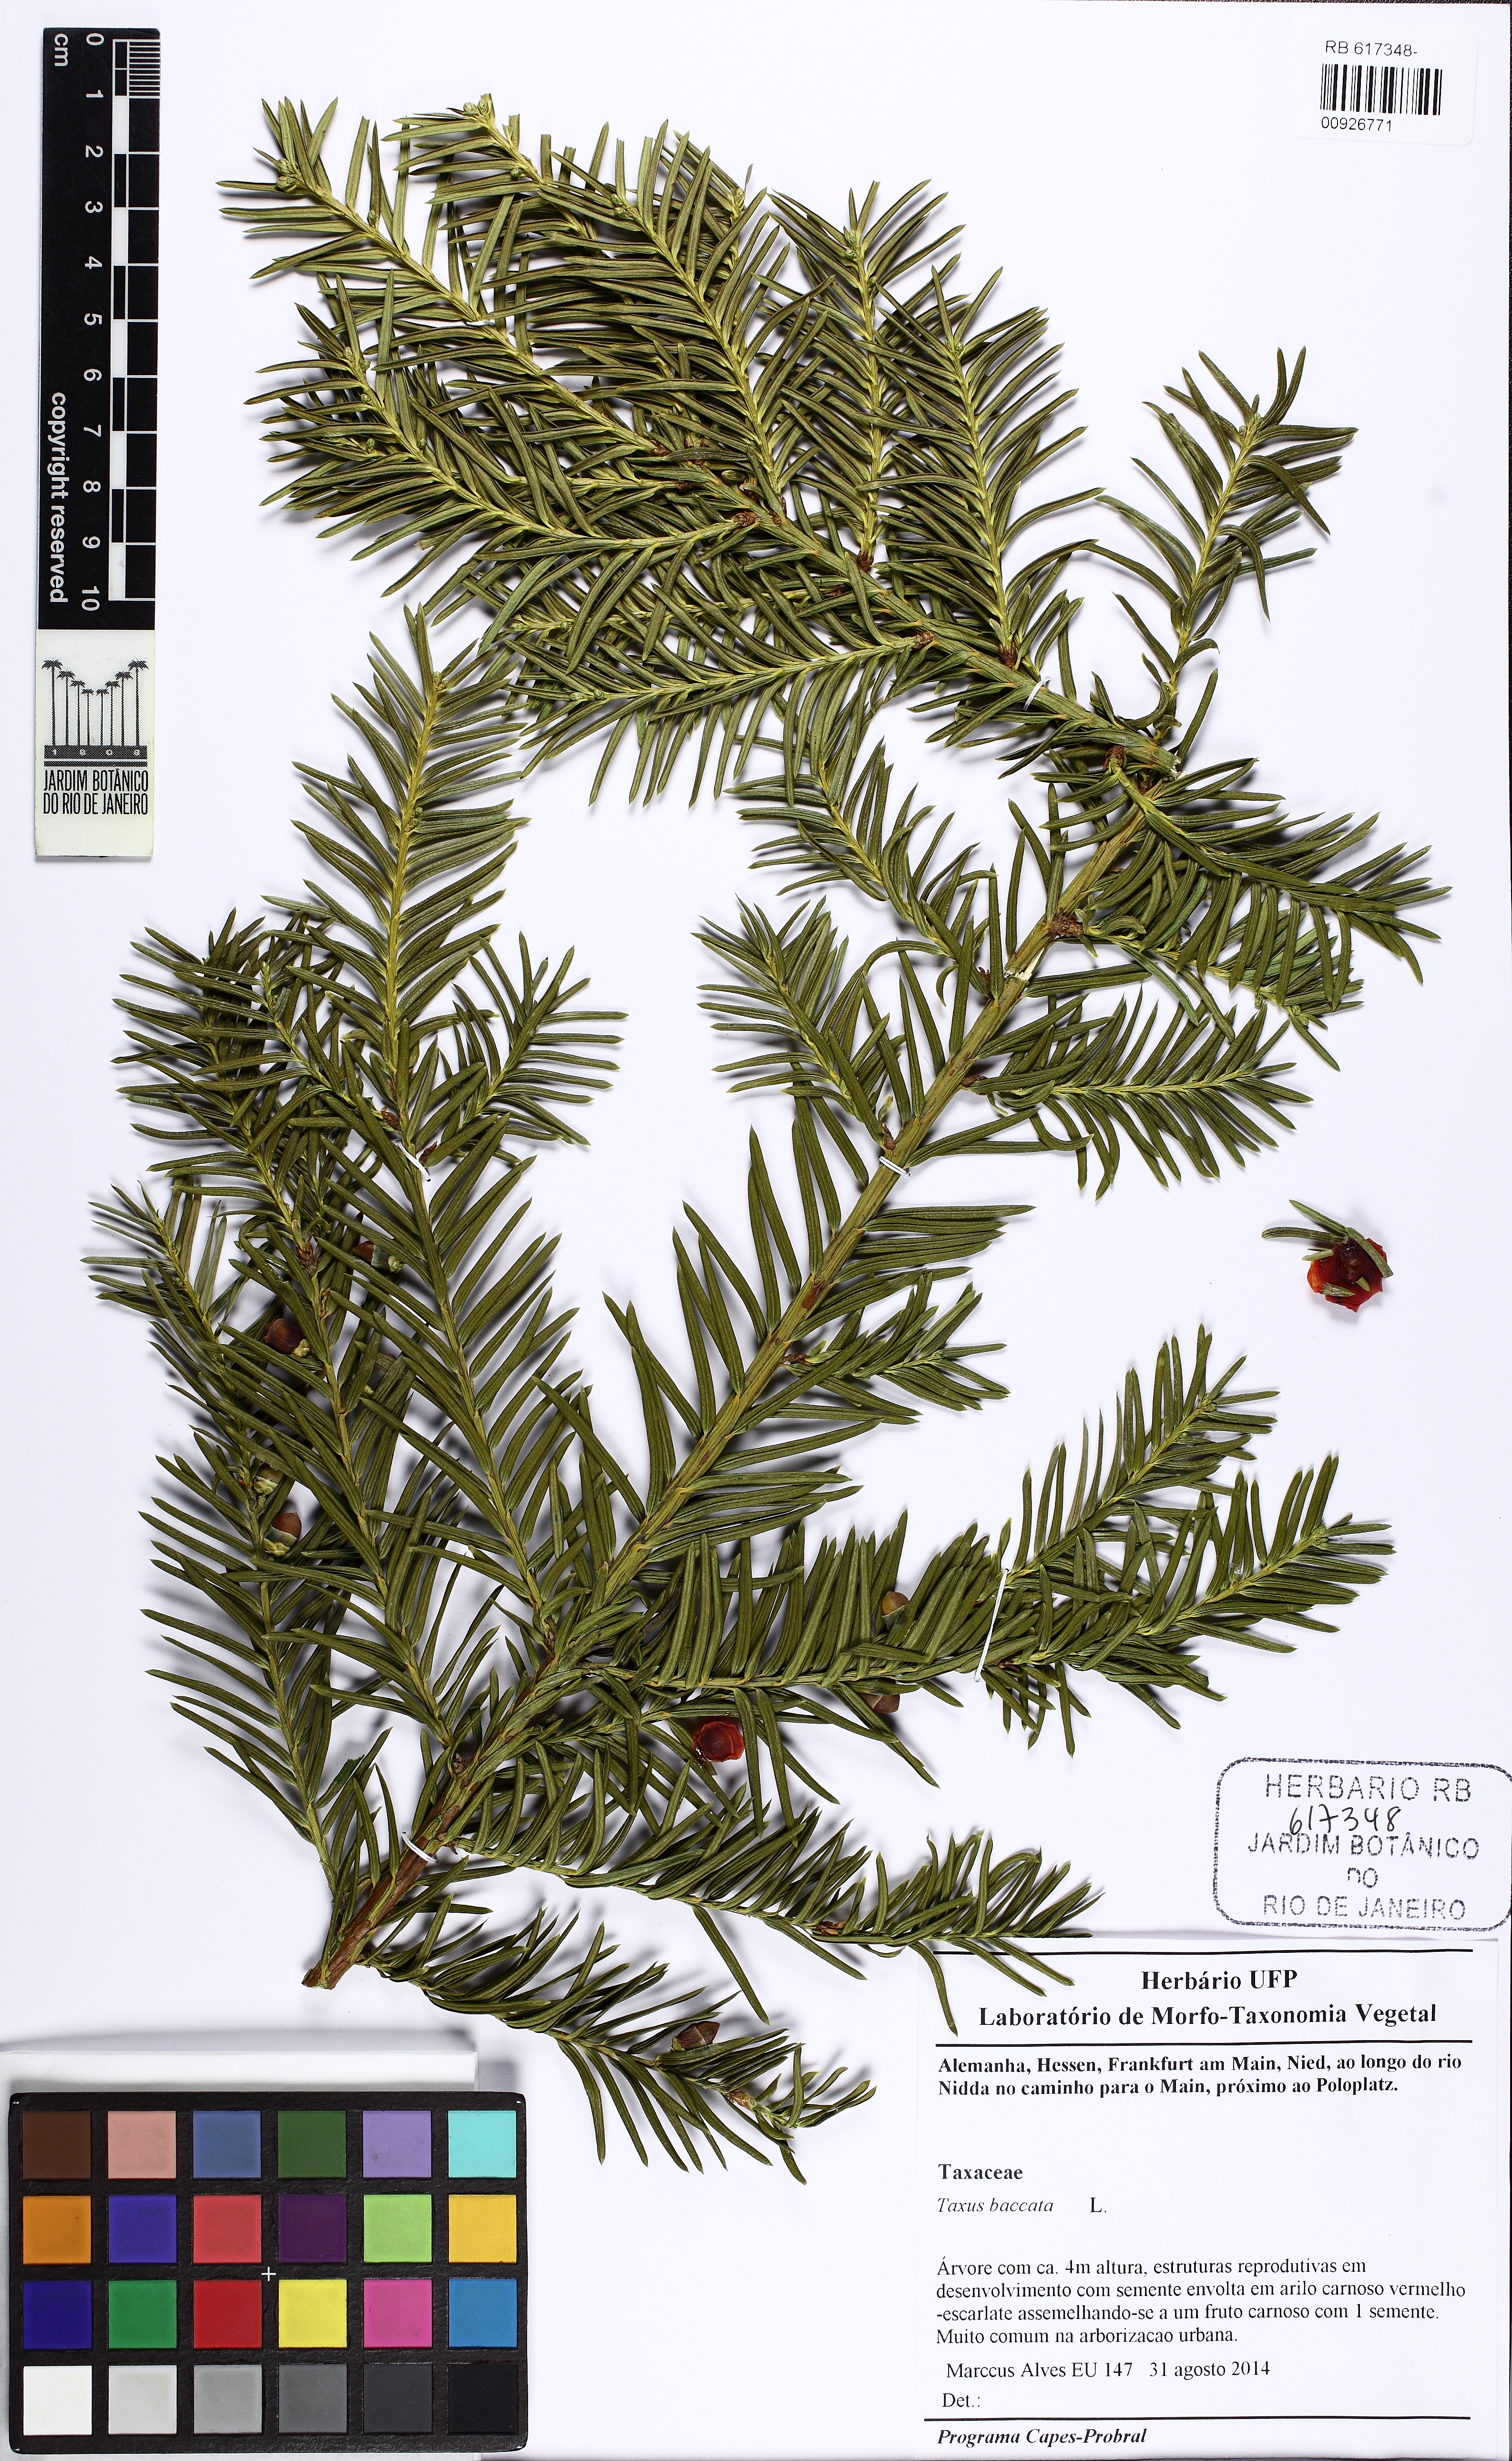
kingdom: Plantae
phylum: Tracheophyta
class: Pinopsida
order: Pinales
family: Taxaceae
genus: Taxus
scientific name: Taxus baccata
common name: Yew
